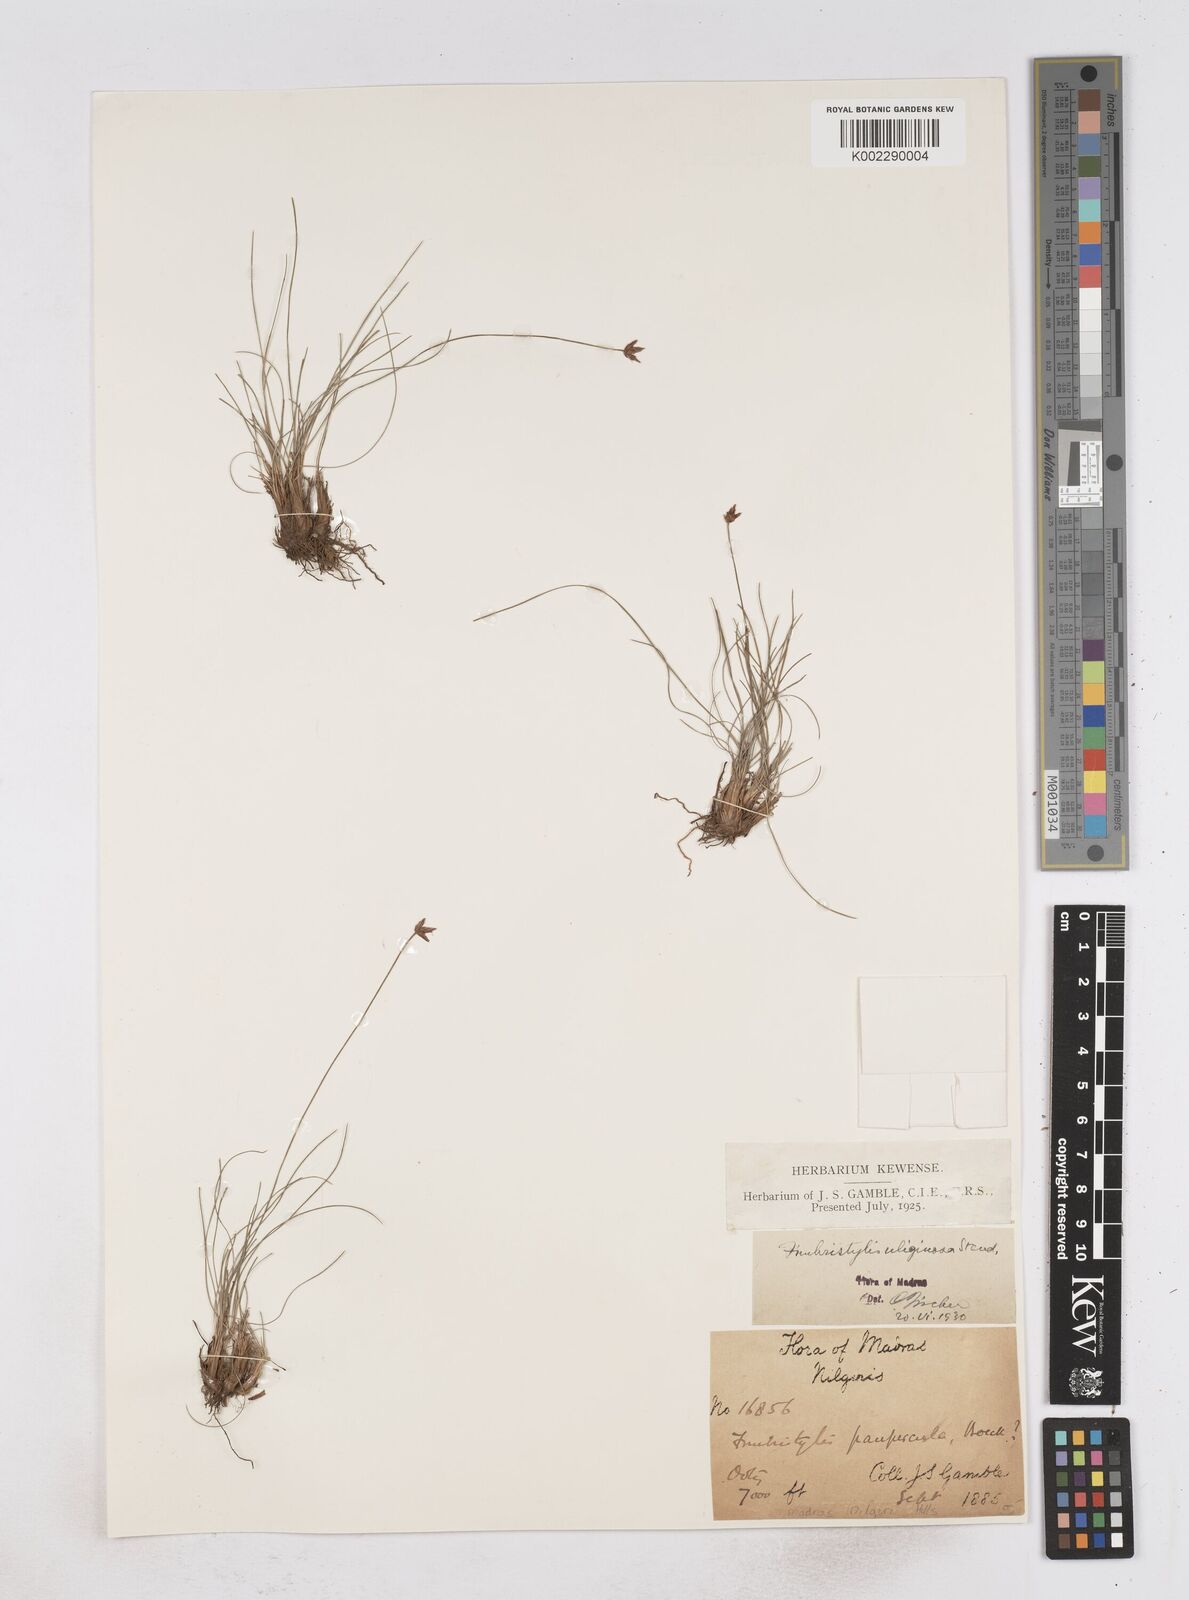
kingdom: Plantae
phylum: Tracheophyta
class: Liliopsida
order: Poales
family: Cyperaceae
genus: Fimbristylis
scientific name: Fimbristylis uliginosa
